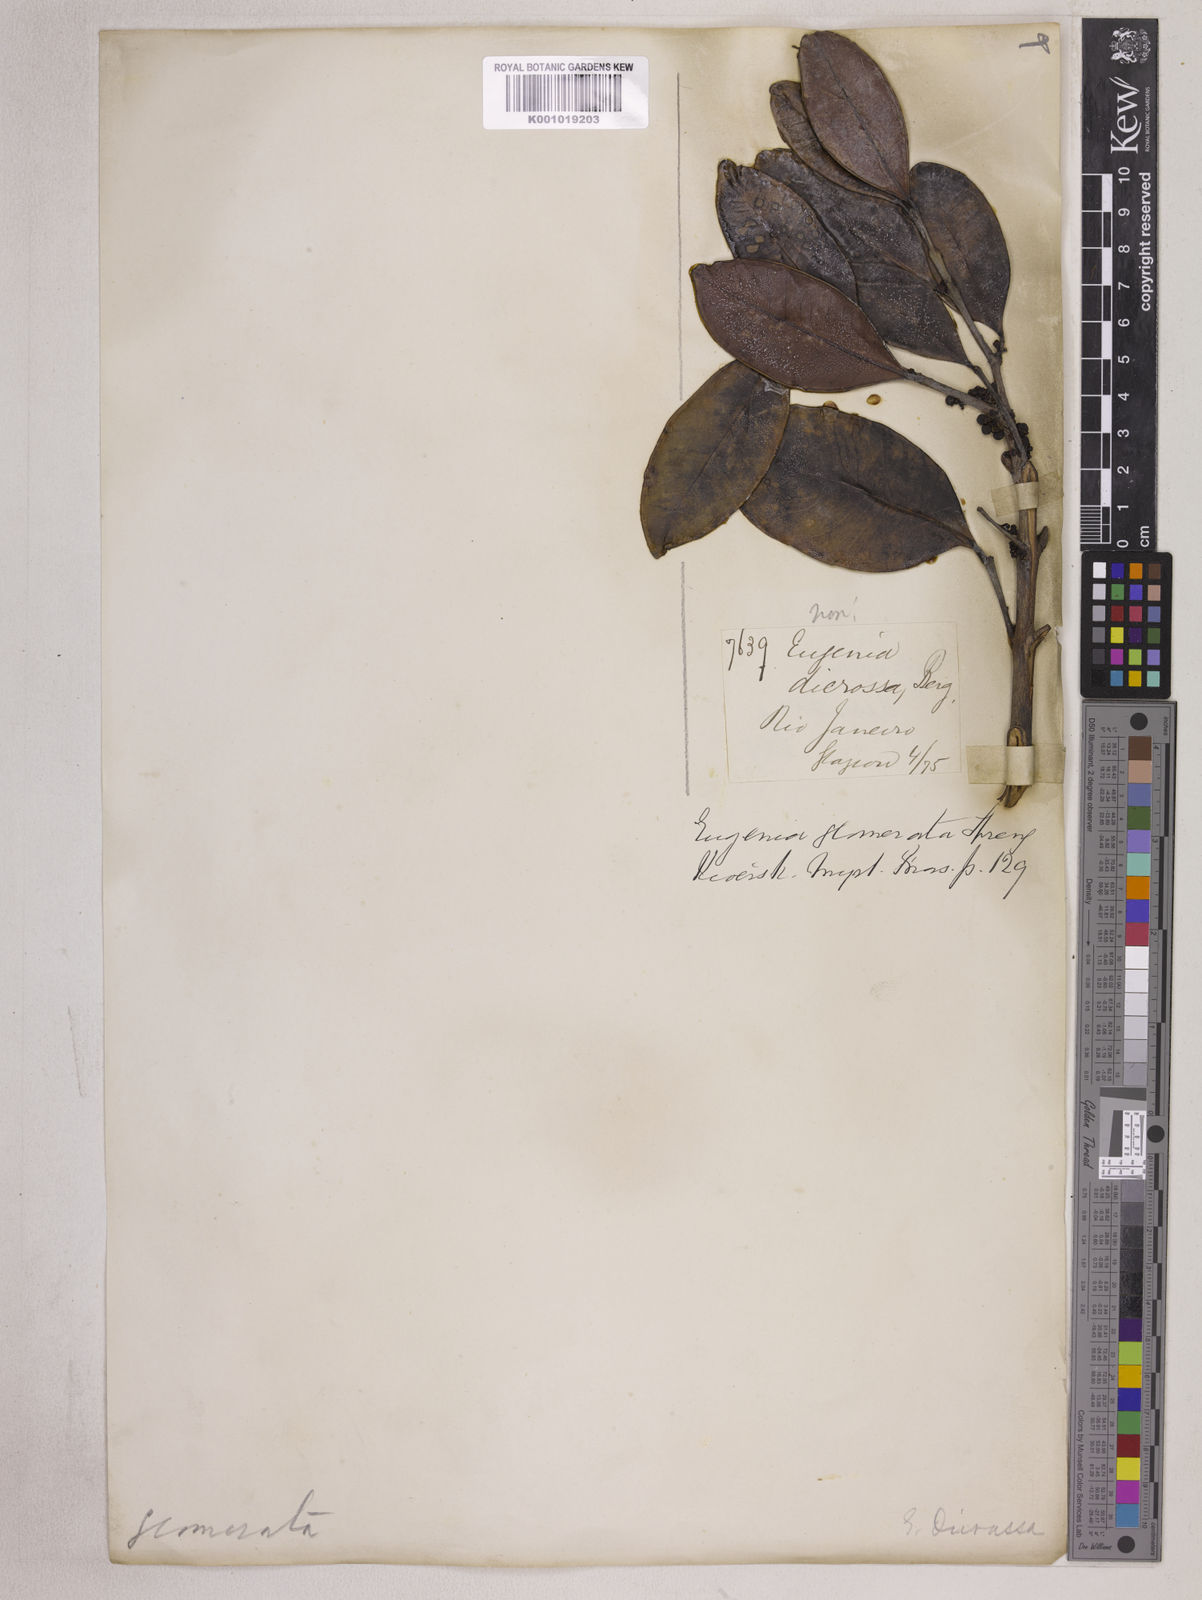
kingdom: Plantae
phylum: Tracheophyta
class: Magnoliopsida
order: Myrtales
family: Myrtaceae
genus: Eugenia
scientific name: Eugenia neoglomerata
